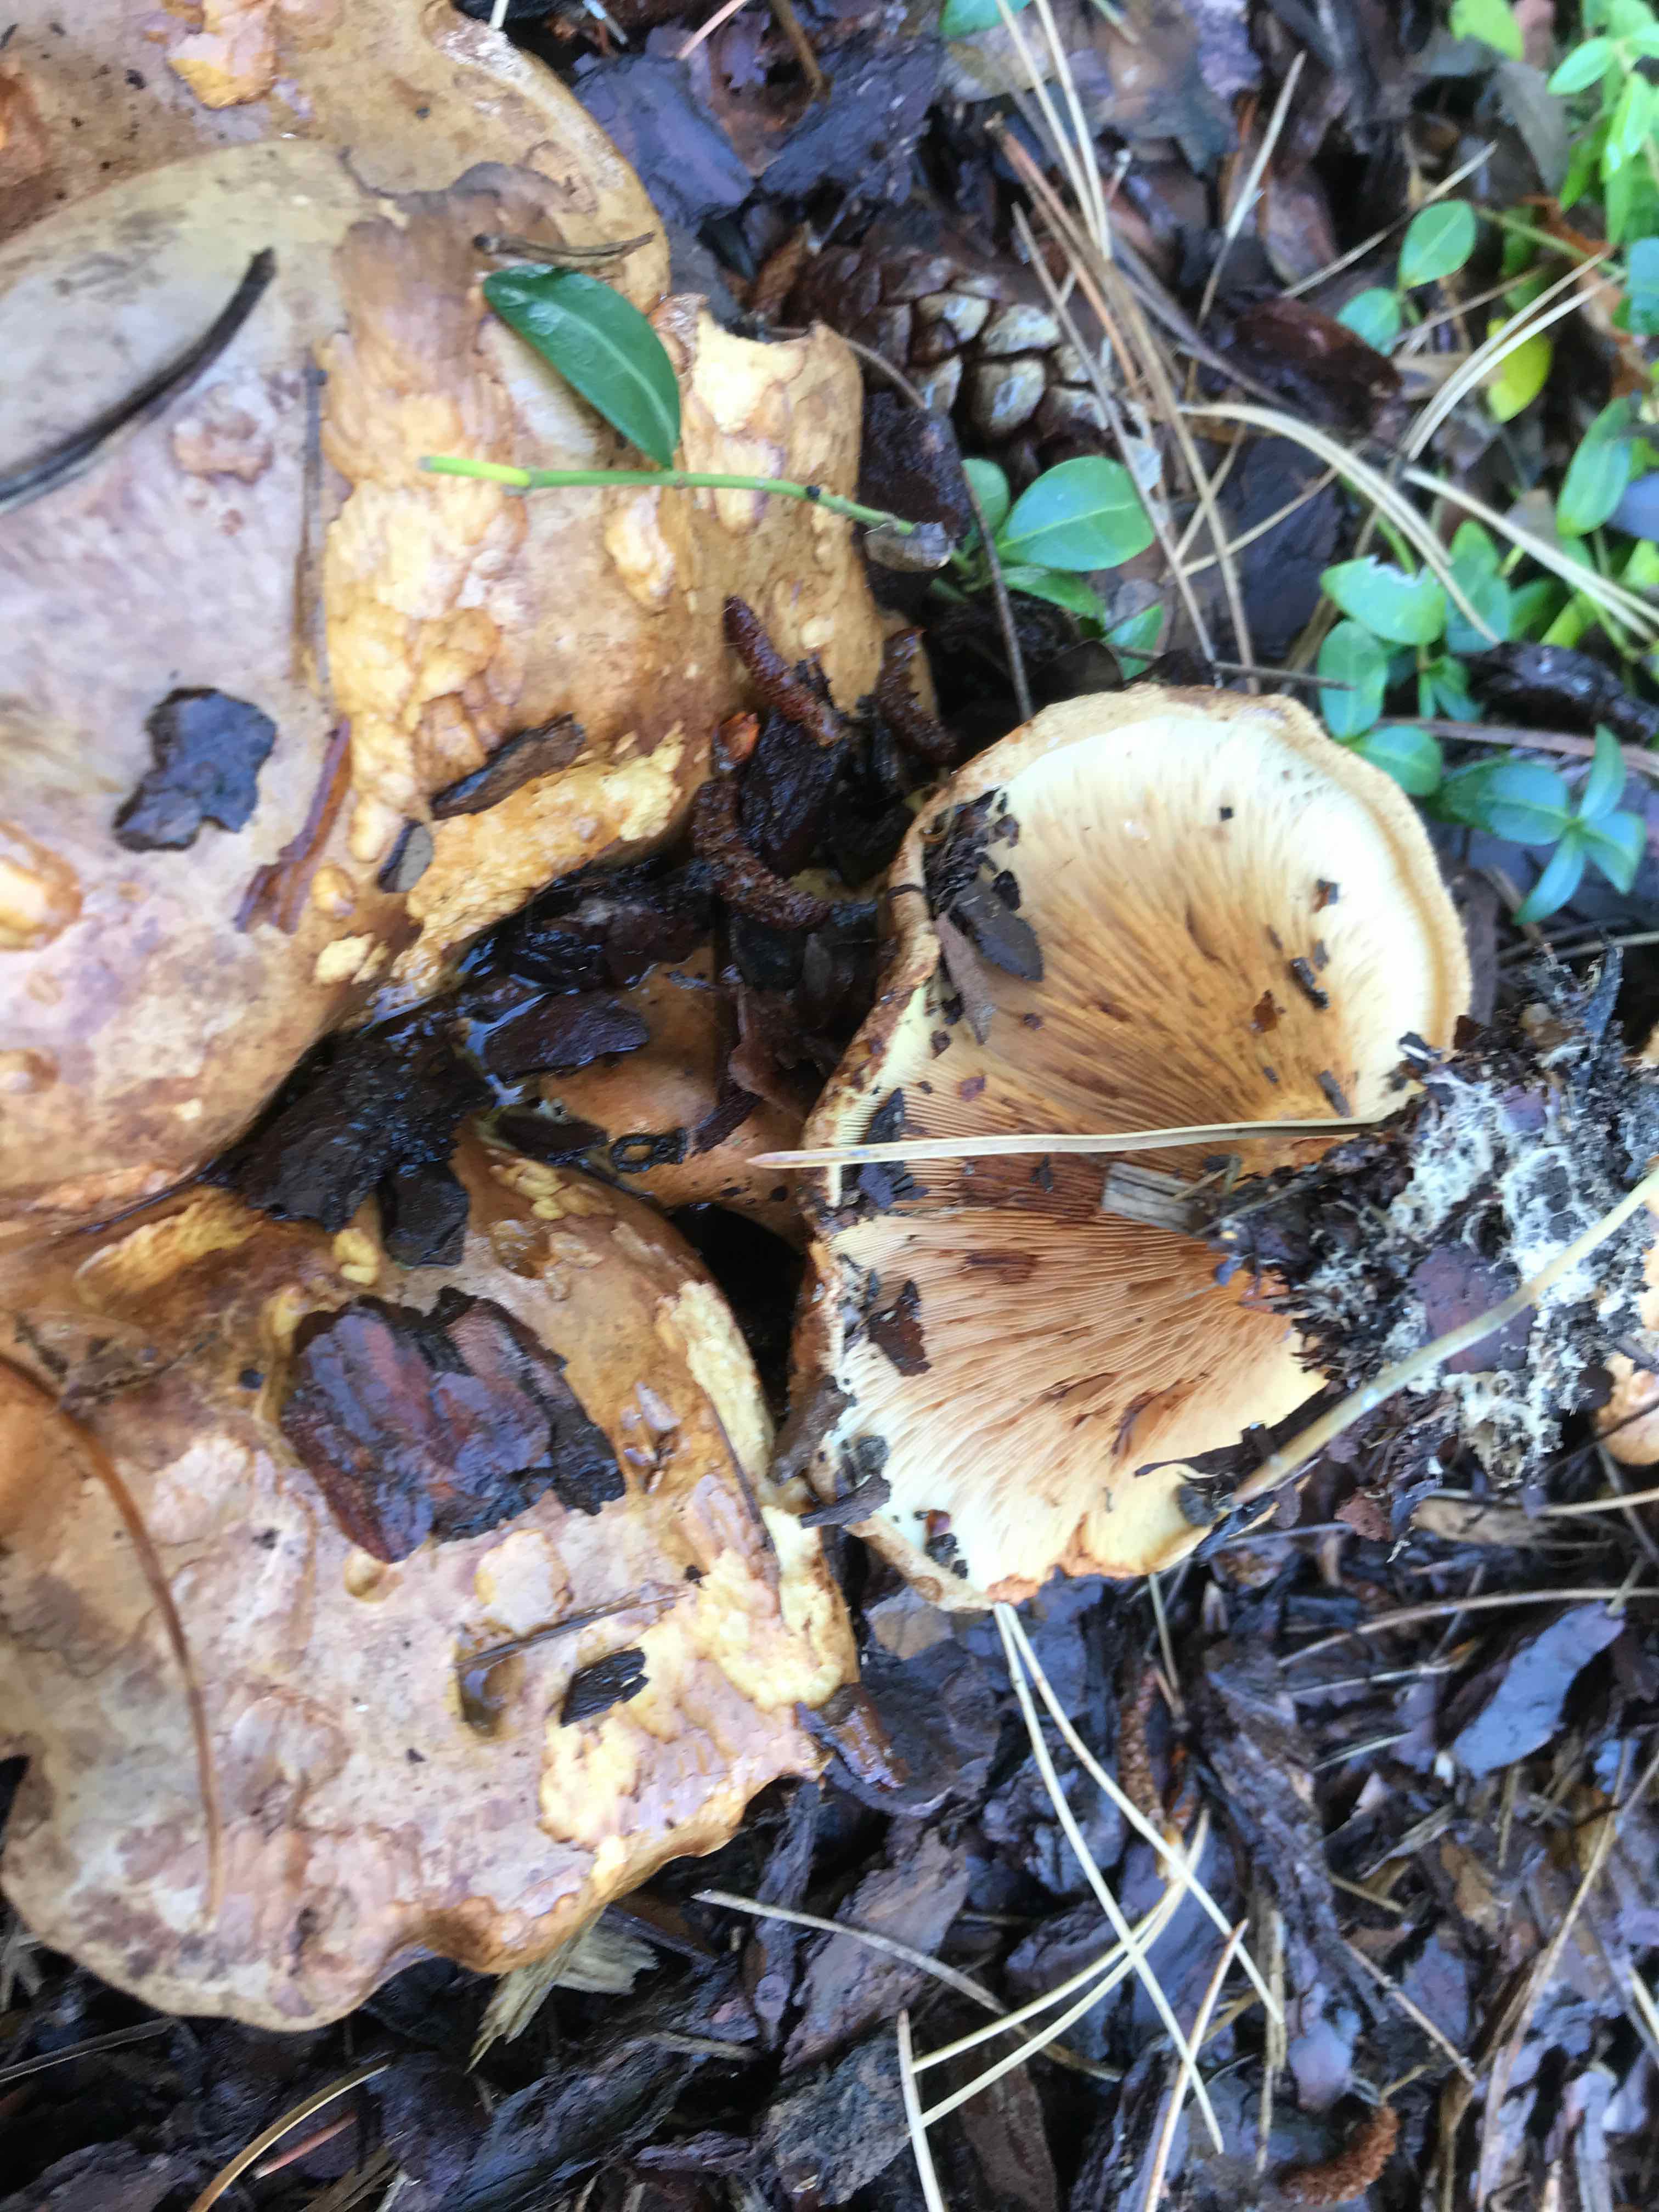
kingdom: Fungi
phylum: Basidiomycota
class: Agaricomycetes
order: Boletales
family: Paxillaceae
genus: Paxillus
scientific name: Paxillus
